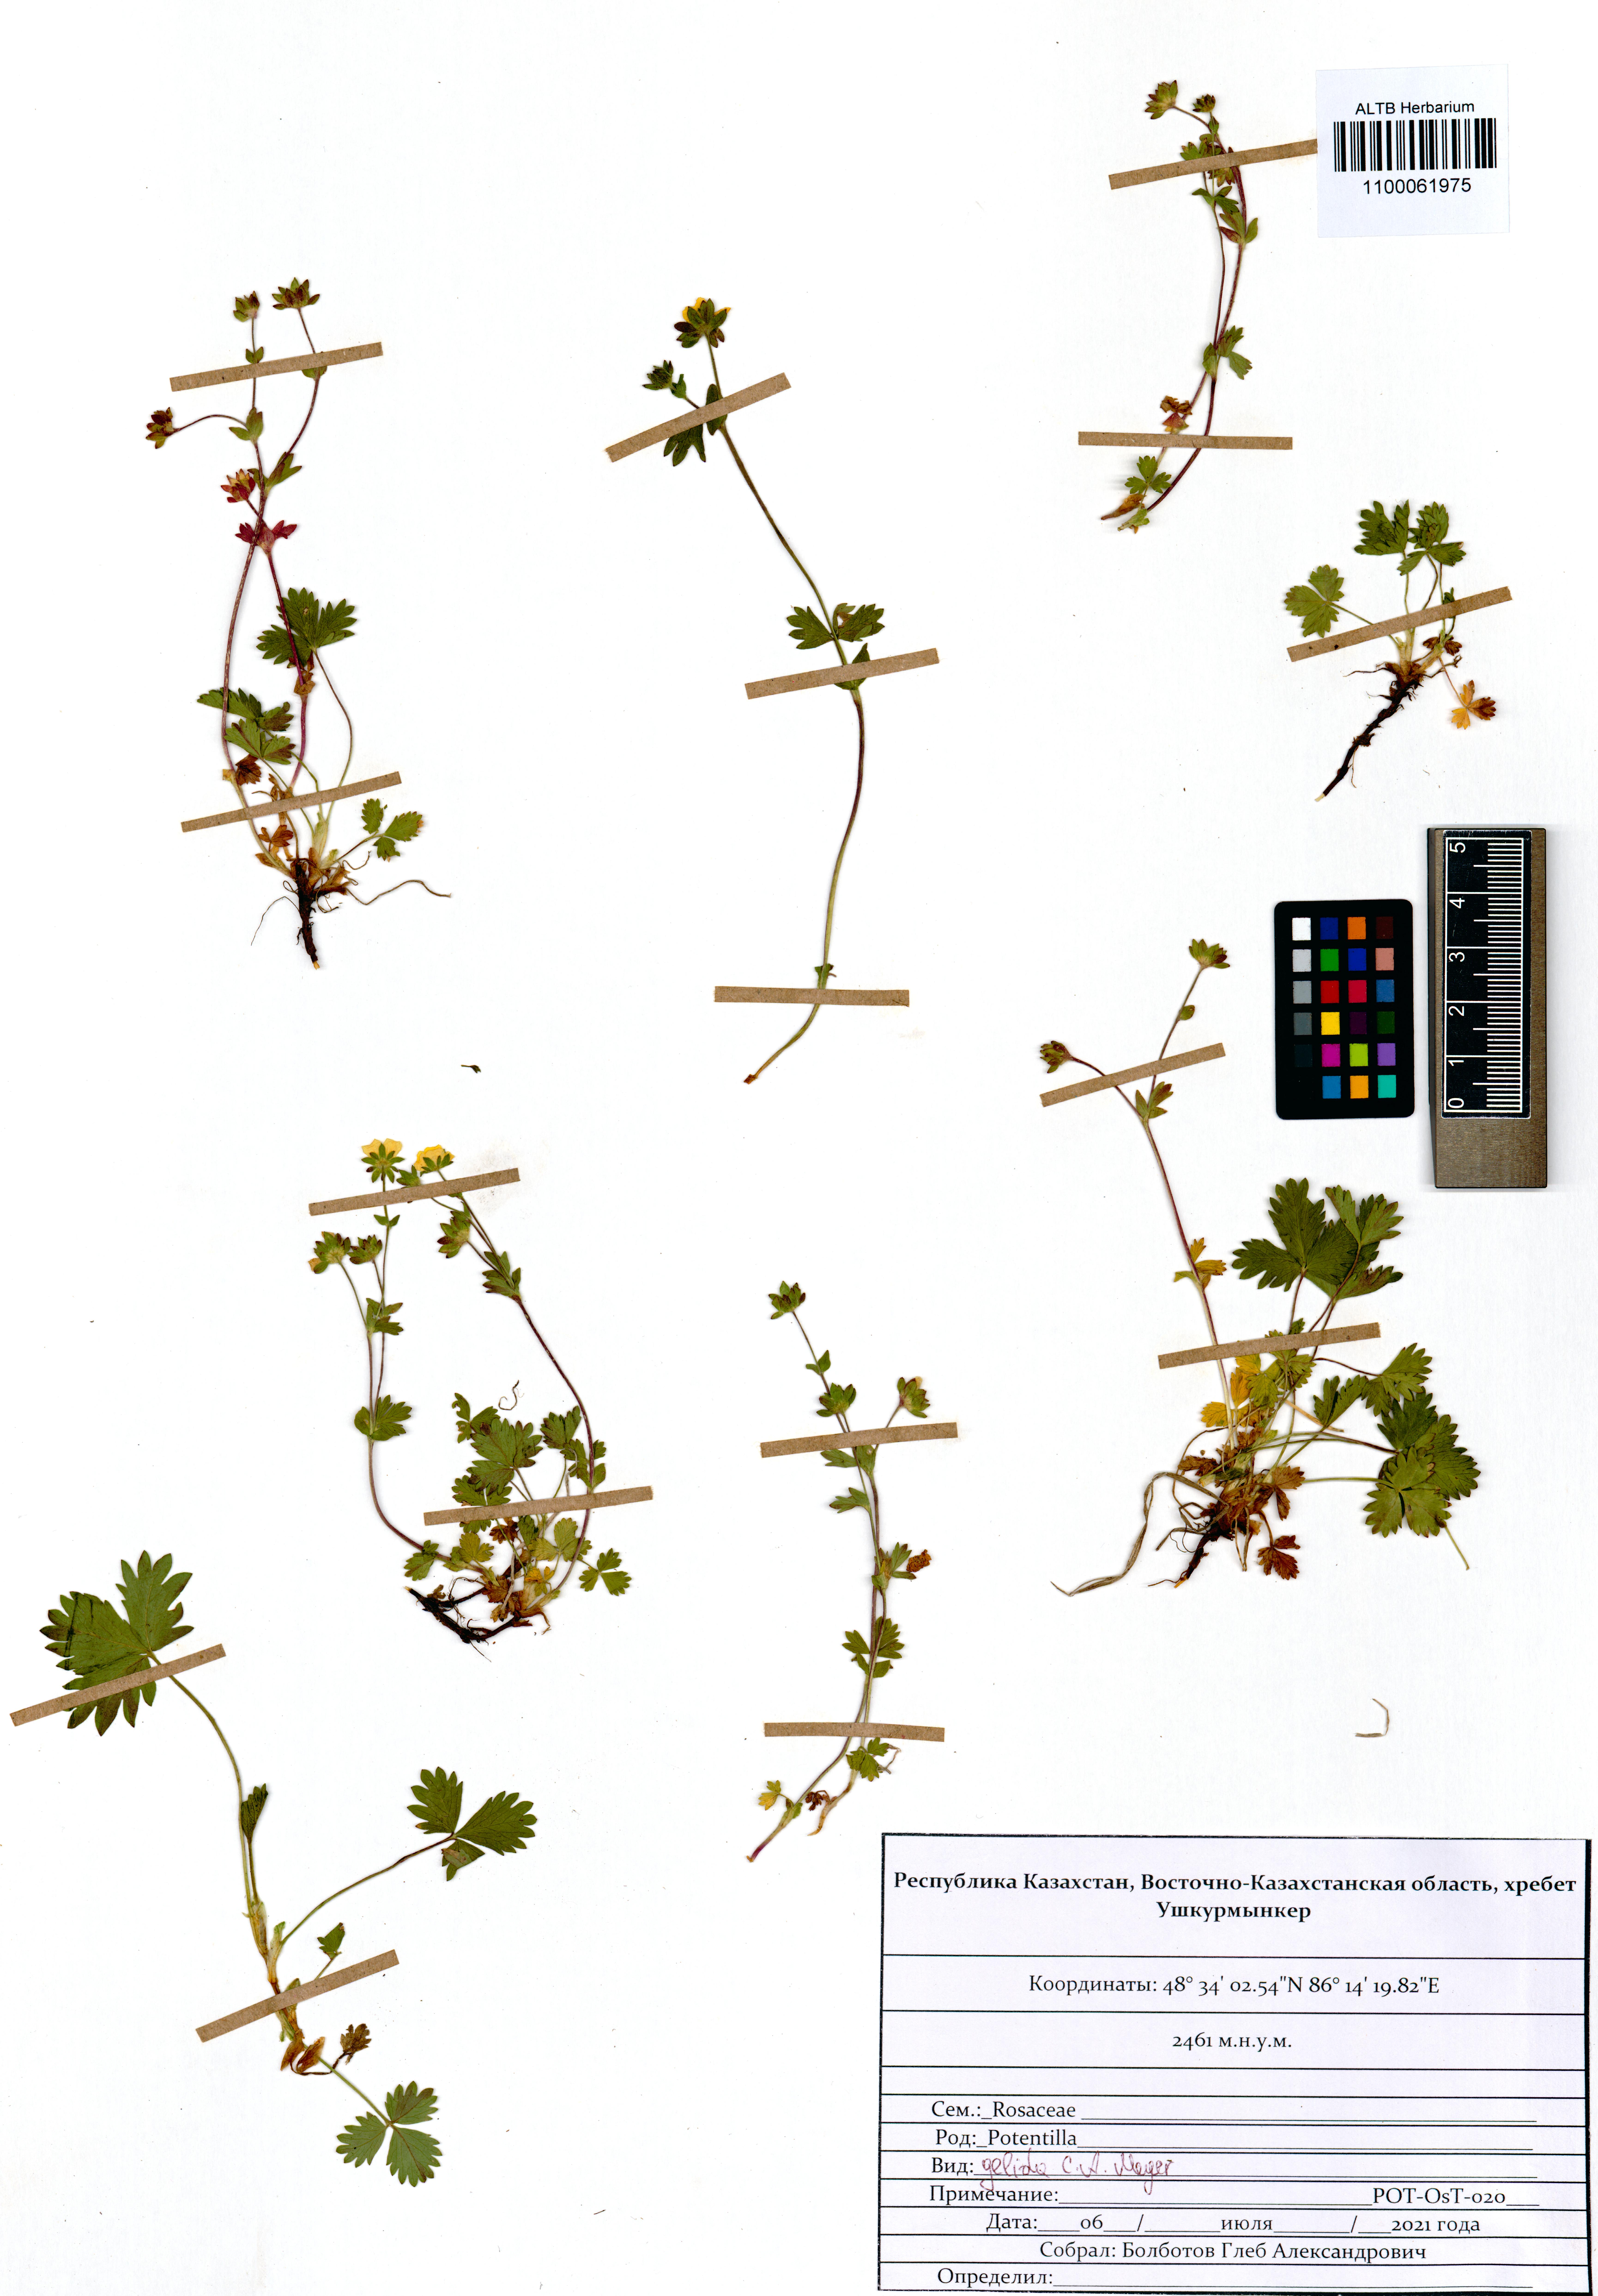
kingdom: Plantae
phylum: Tracheophyta
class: Magnoliopsida
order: Rosales
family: Rosaceae
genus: Potentilla
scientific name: Potentilla crantzii
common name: Alpine cinquefoil
